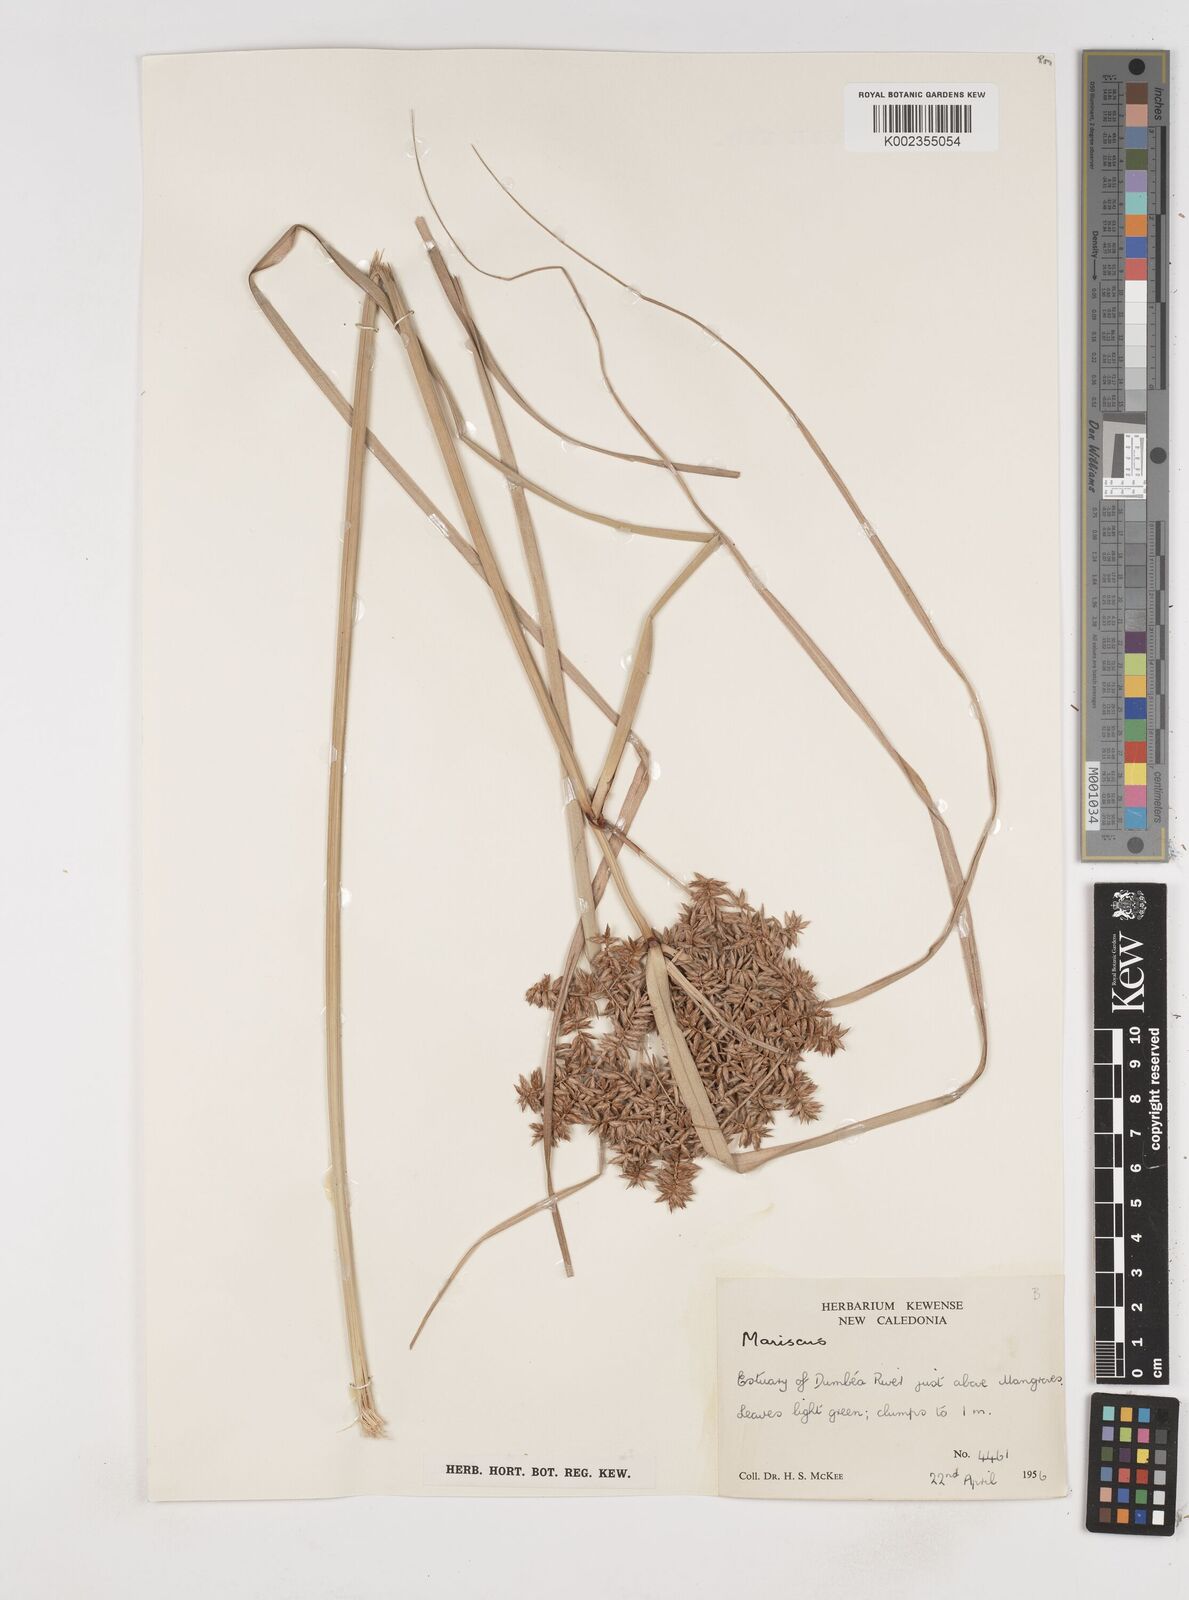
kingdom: Plantae
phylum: Tracheophyta
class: Liliopsida
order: Poales
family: Cyperaceae
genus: Cyperus
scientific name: Cyperus javanicus
